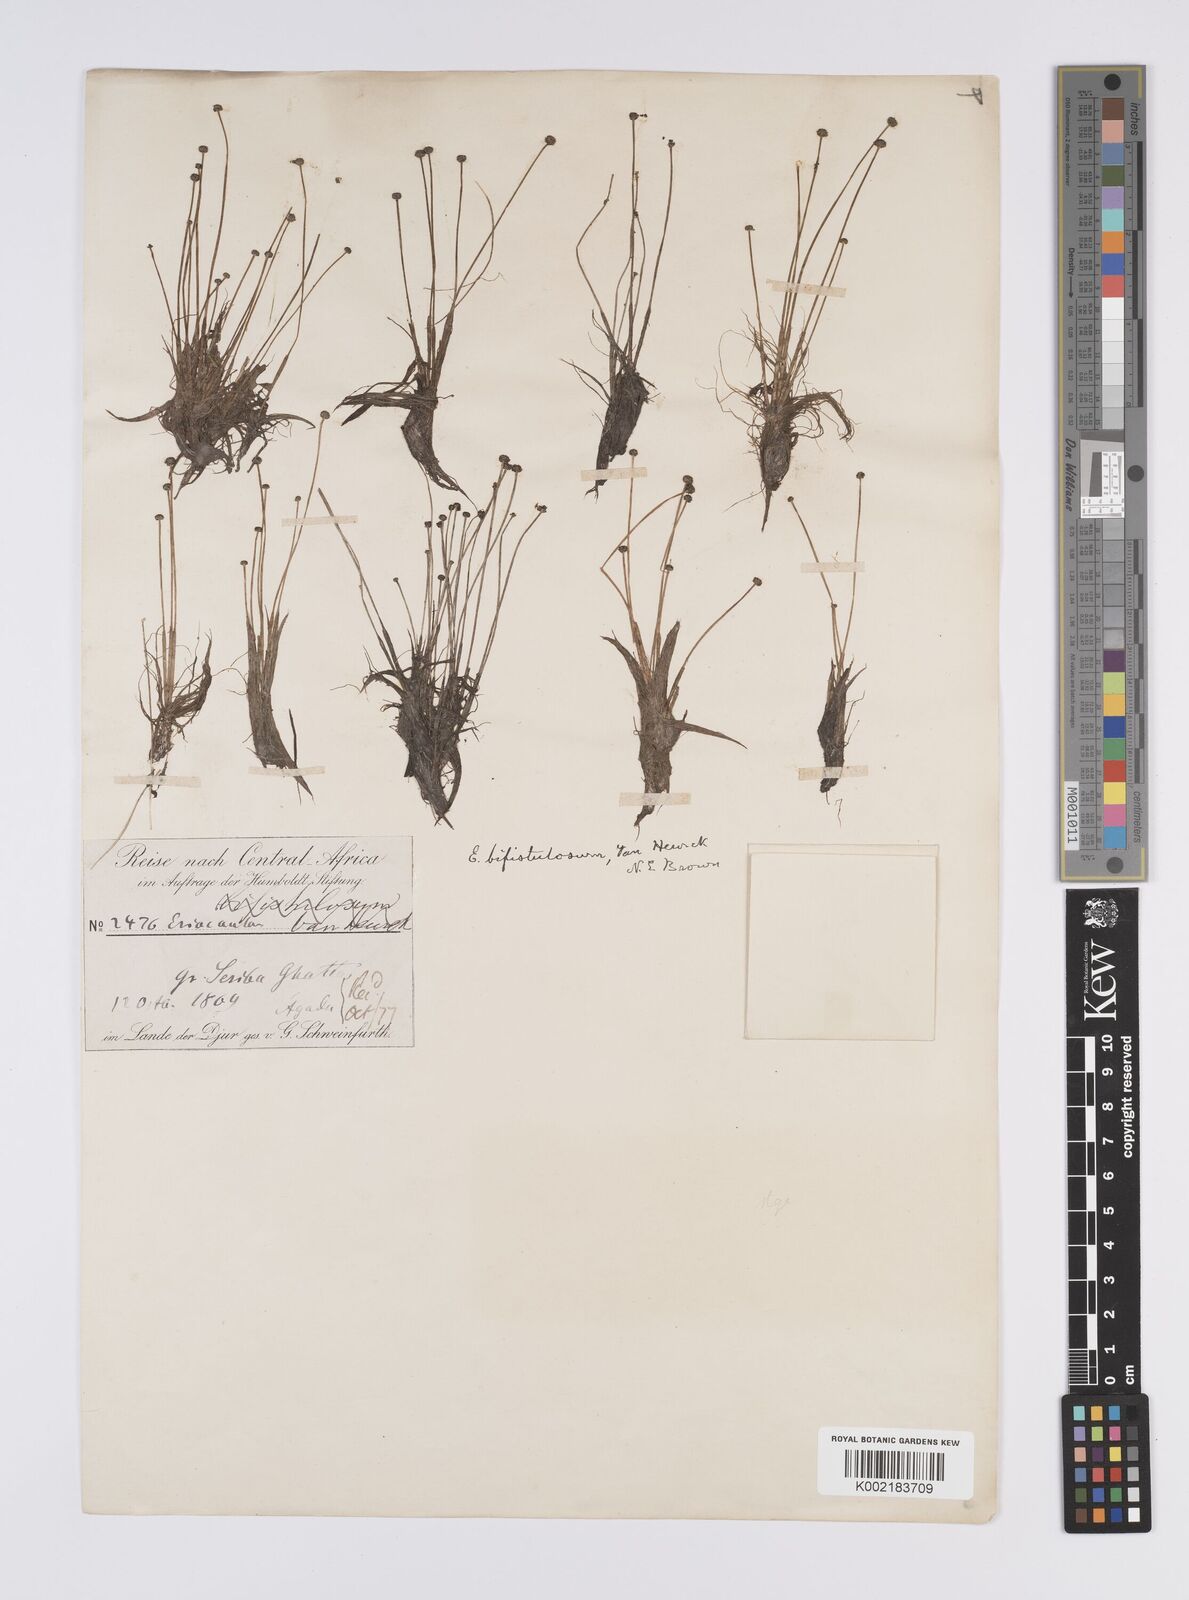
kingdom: Plantae
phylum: Tracheophyta
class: Liliopsida
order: Poales
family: Eriocaulaceae
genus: Eriocaulon
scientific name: Eriocaulon
